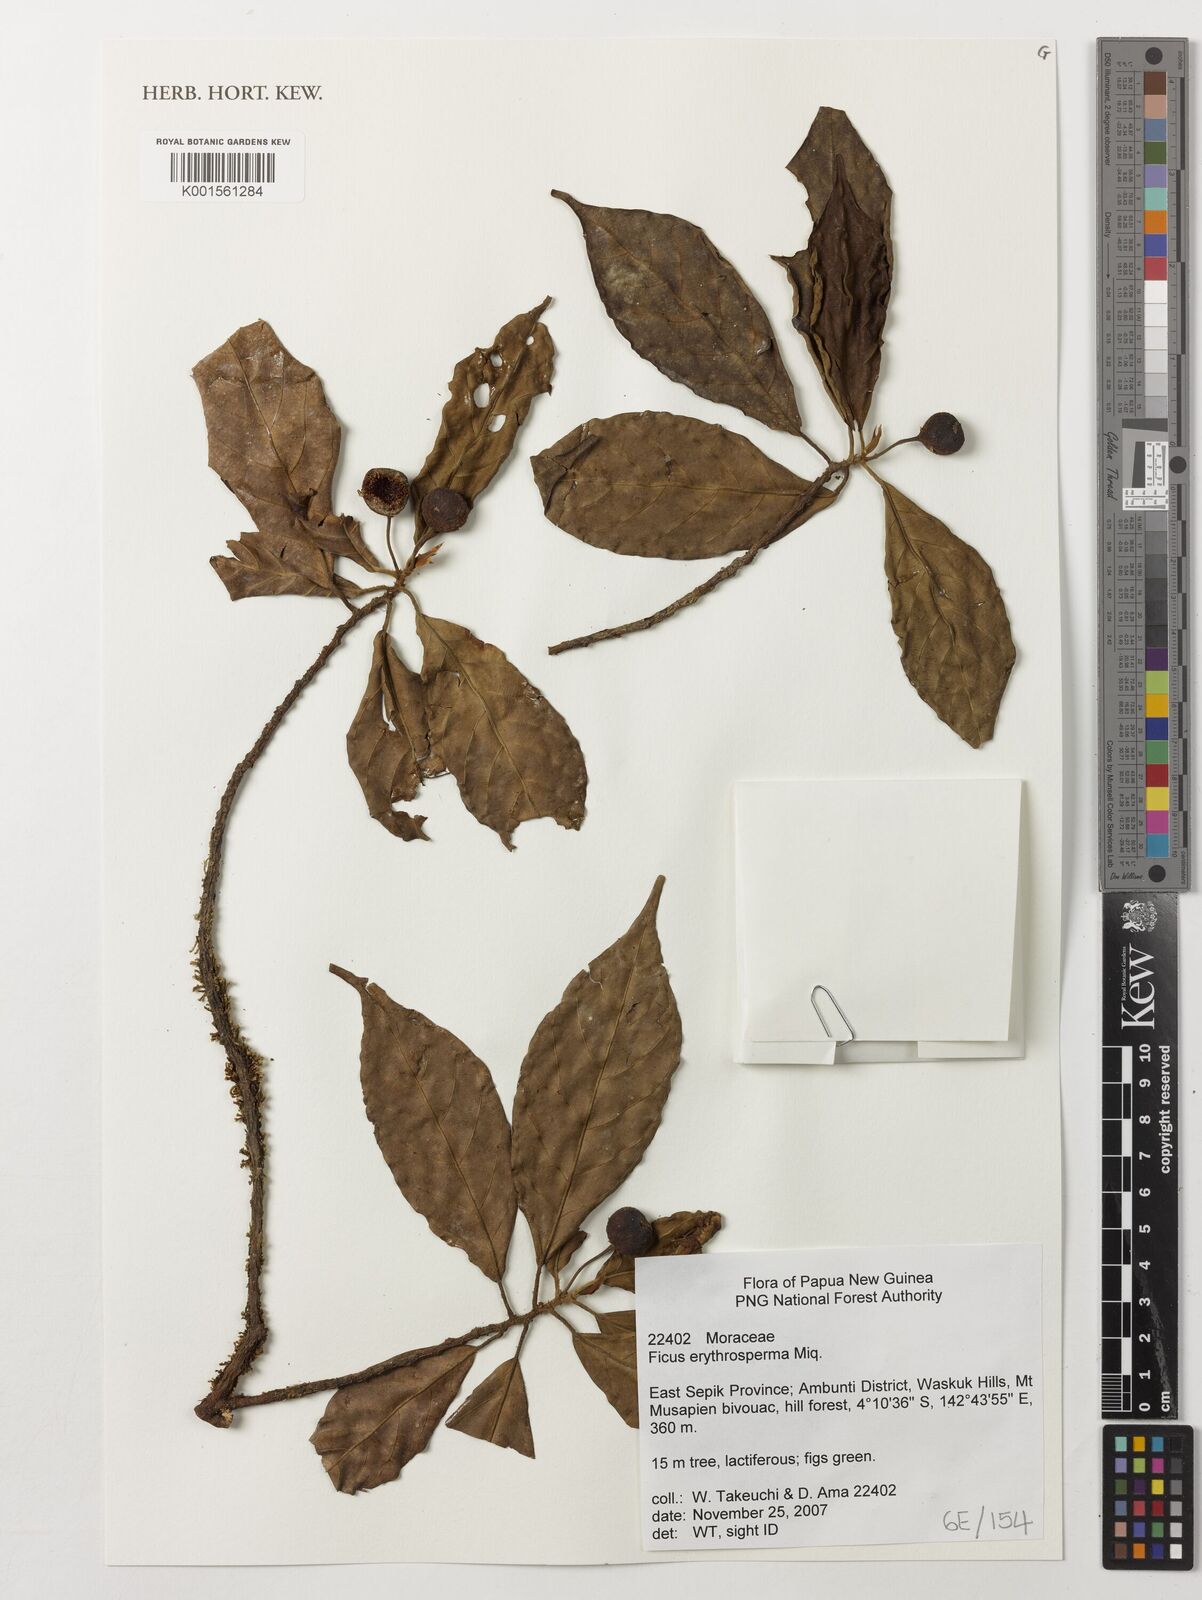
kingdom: Plantae
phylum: Tracheophyta
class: Magnoliopsida
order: Rosales
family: Moraceae
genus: Ficus
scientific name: Ficus erythrosperma
